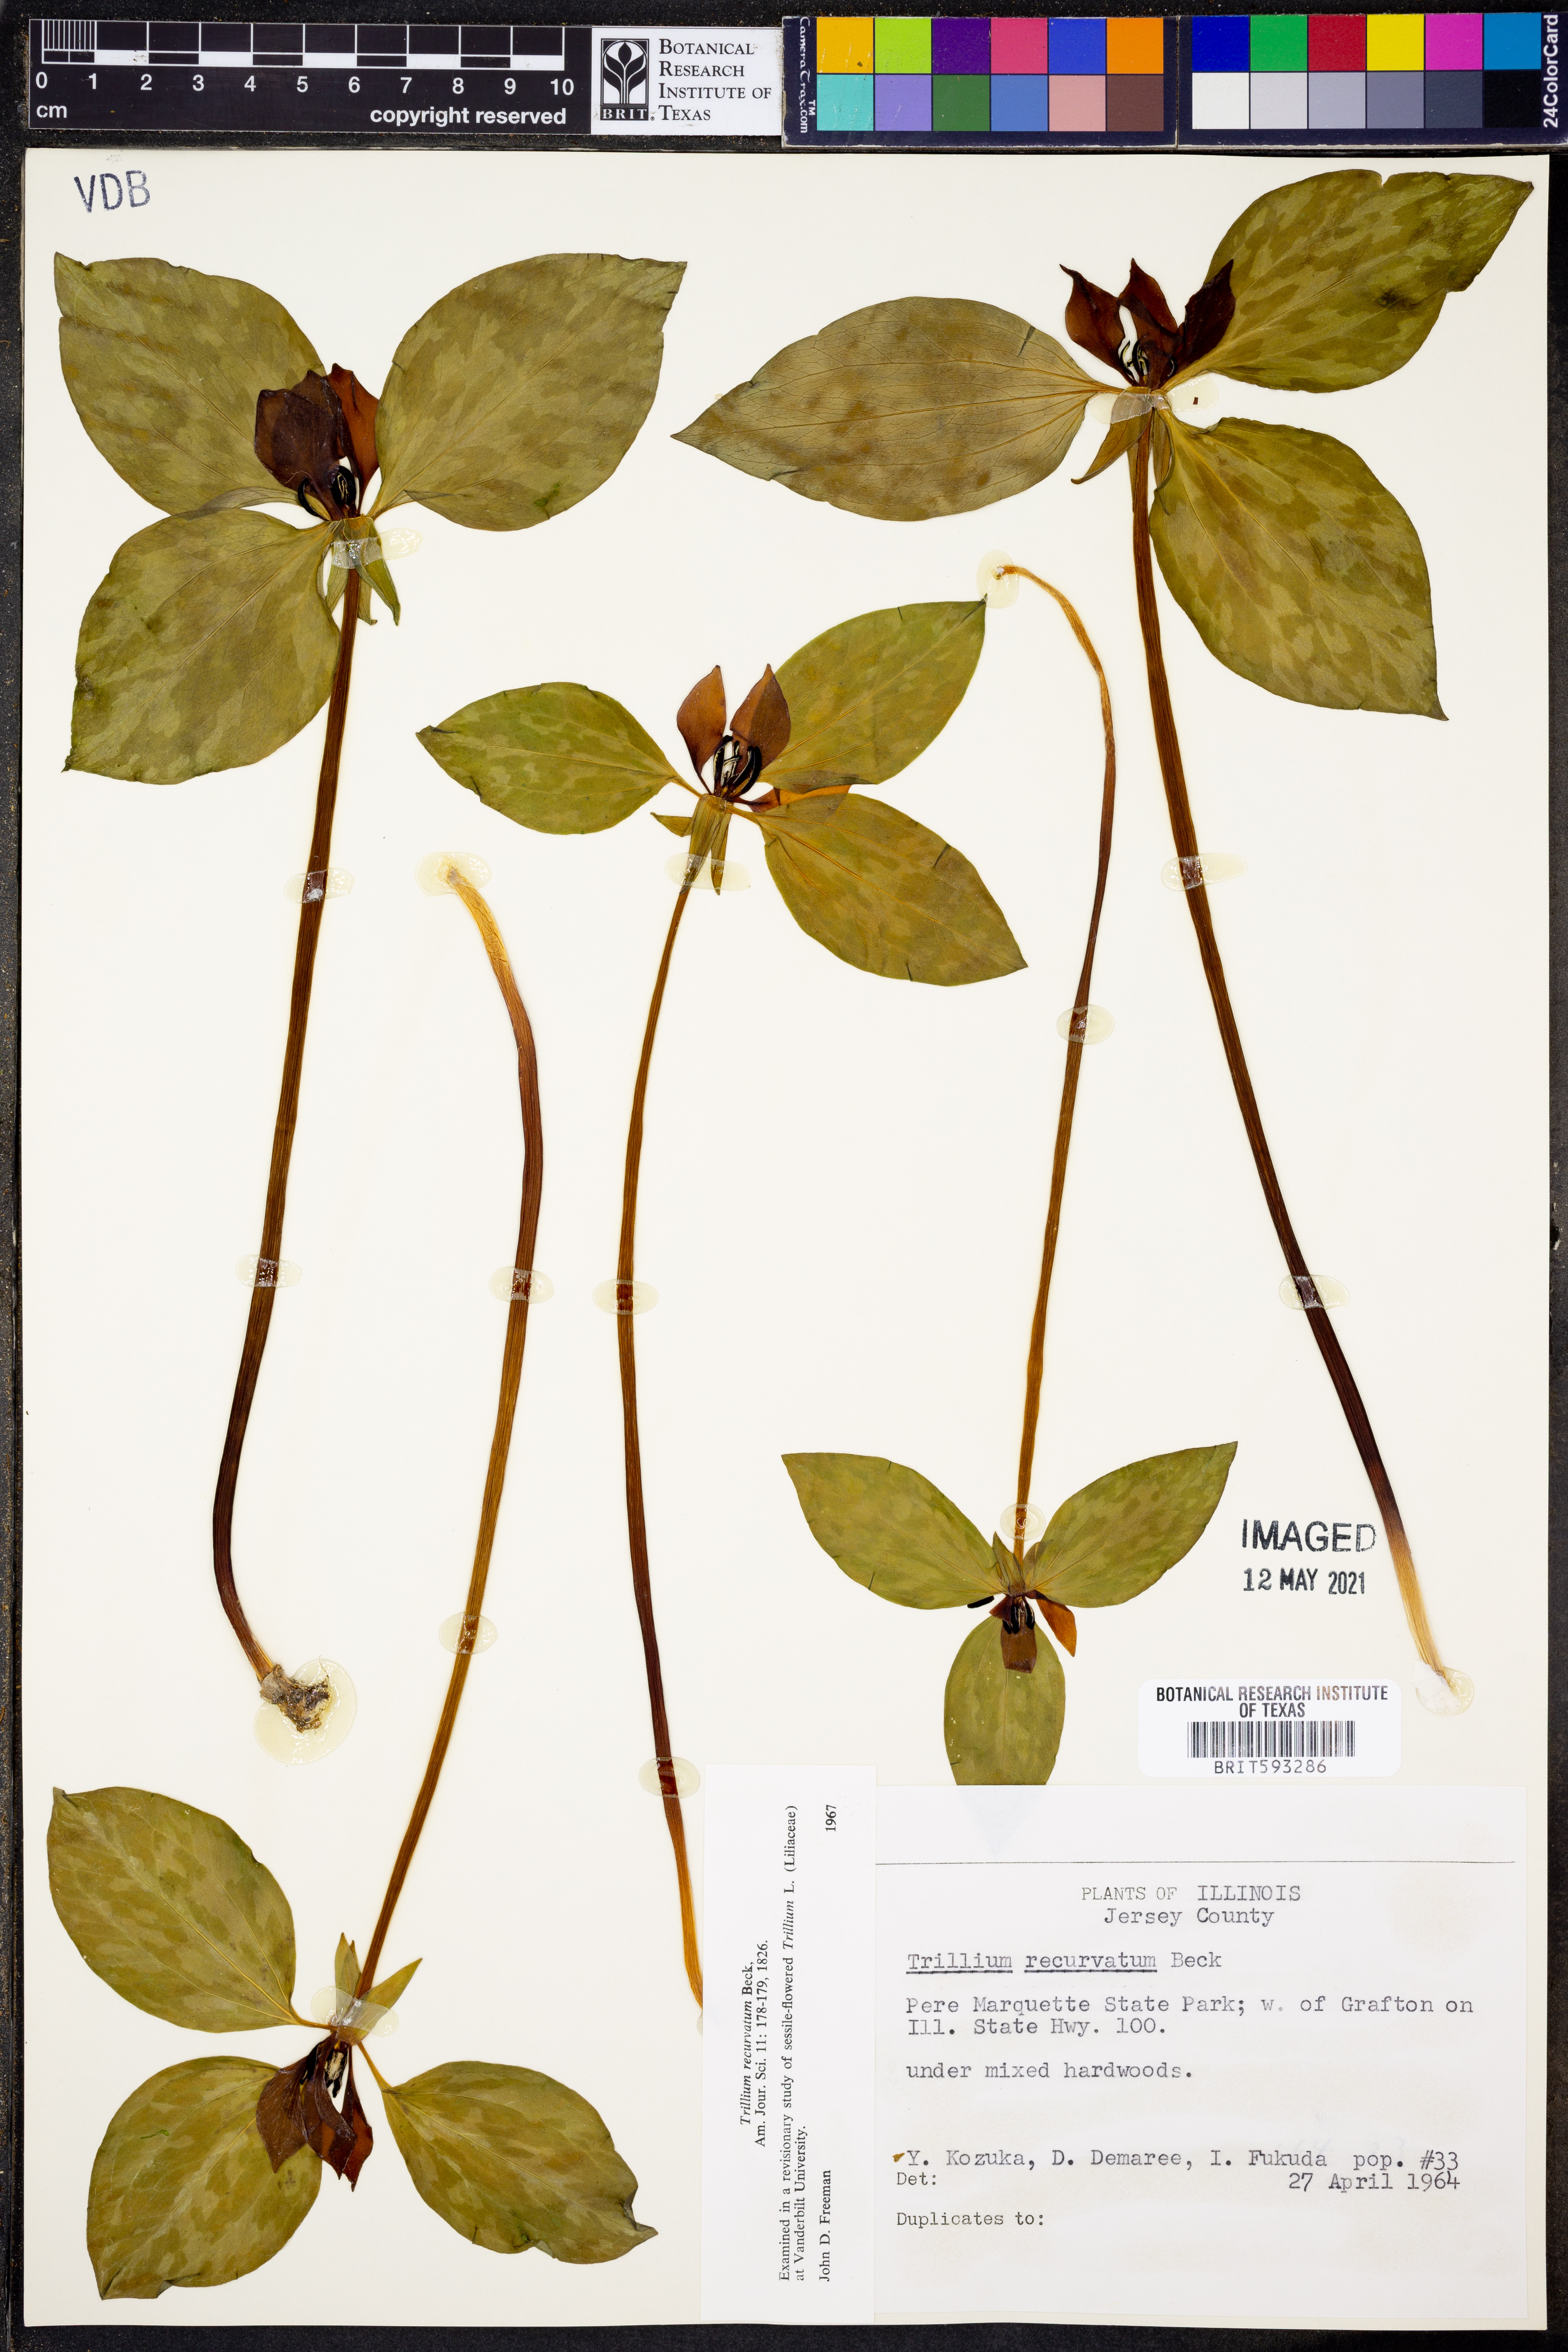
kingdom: Plantae
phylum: Tracheophyta
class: Liliopsida
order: Liliales
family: Melanthiaceae
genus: Trillium
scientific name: Trillium recurvatum
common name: Bloody butcher
